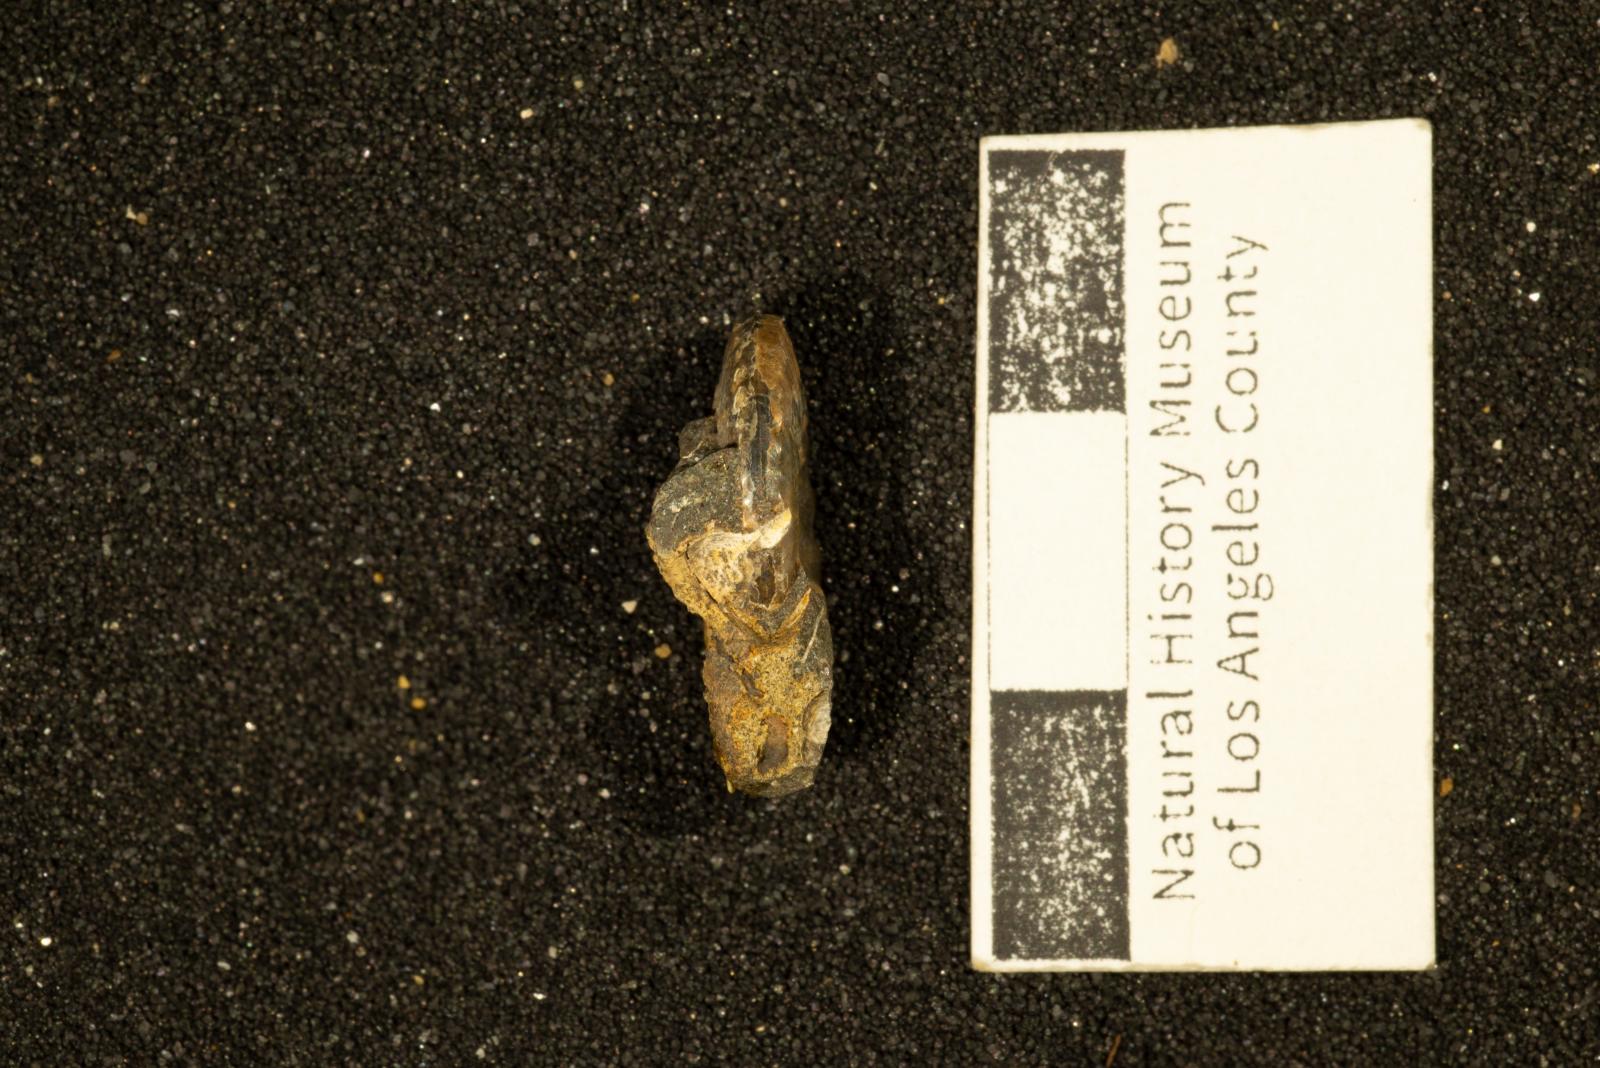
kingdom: Animalia
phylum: Mollusca
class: Cephalopoda
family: Collignoniceratidae
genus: Subprionocyclus
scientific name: Subprionocyclus
